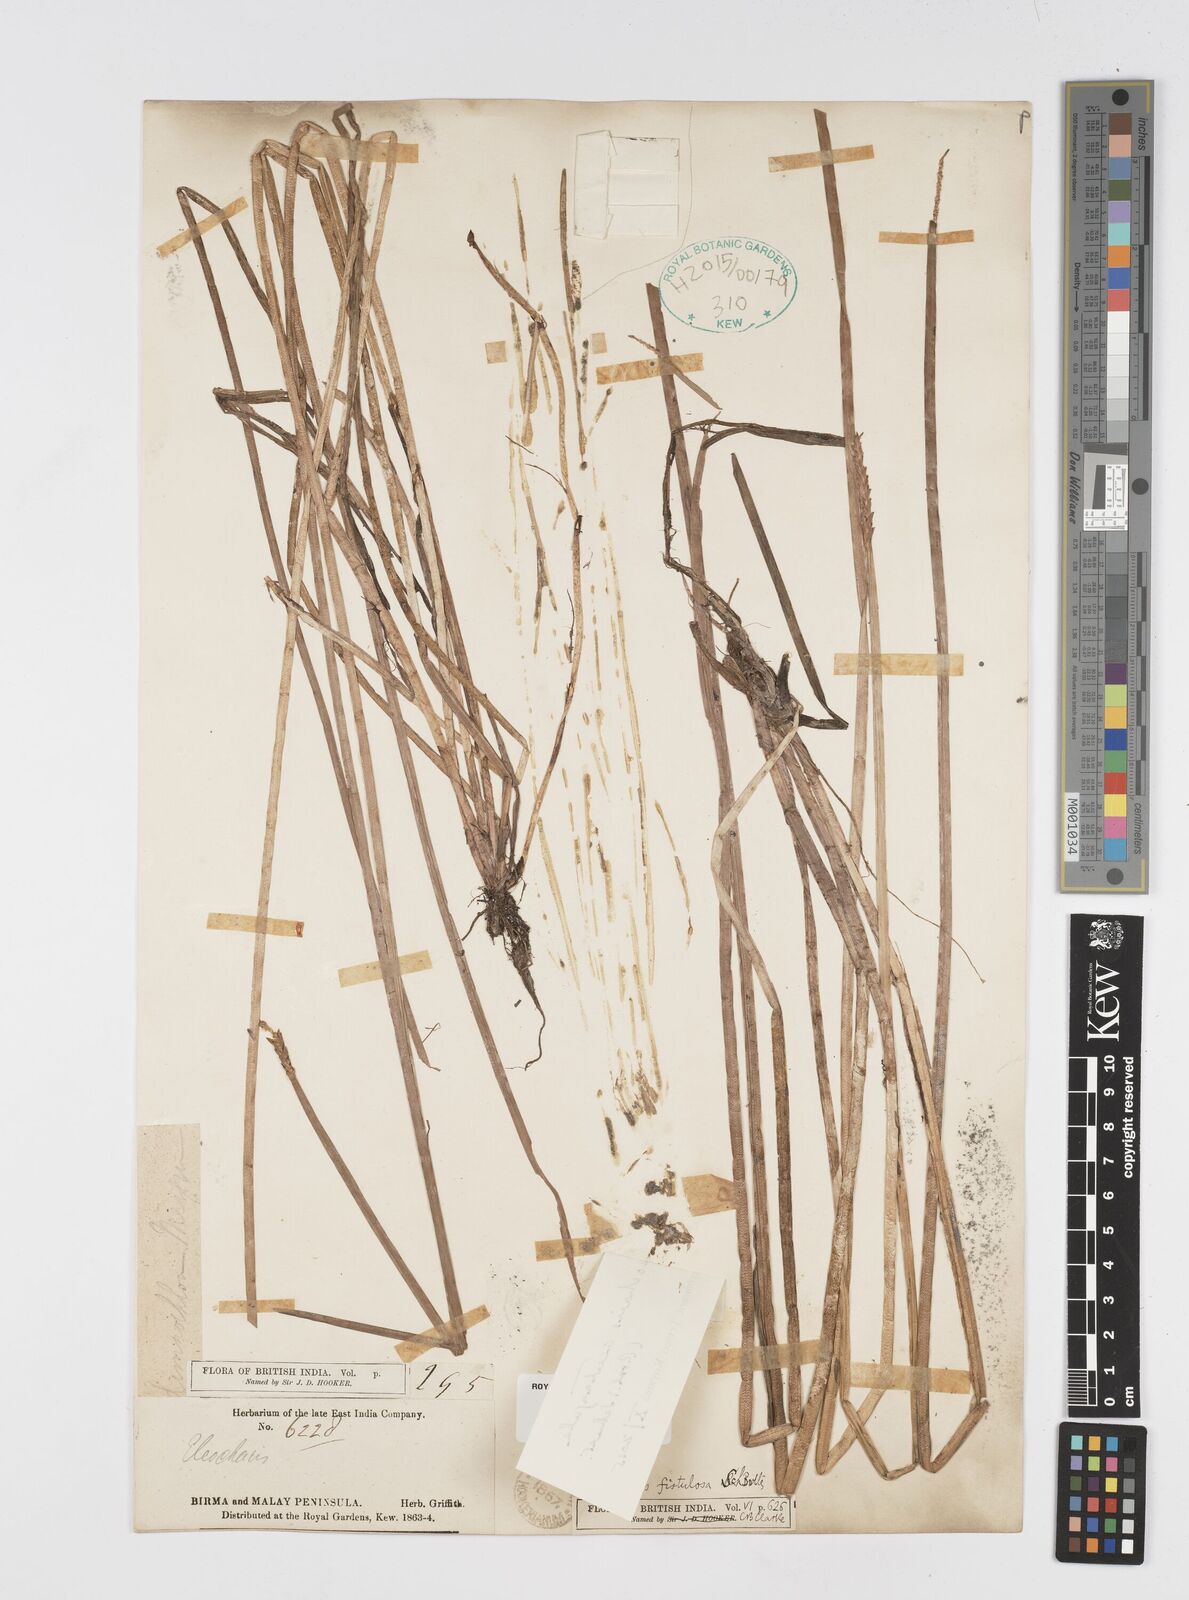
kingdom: Plantae
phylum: Tracheophyta
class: Liliopsida
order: Poales
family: Cyperaceae
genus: Eleocharis
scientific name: Eleocharis acutangula
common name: Acute spikerush
